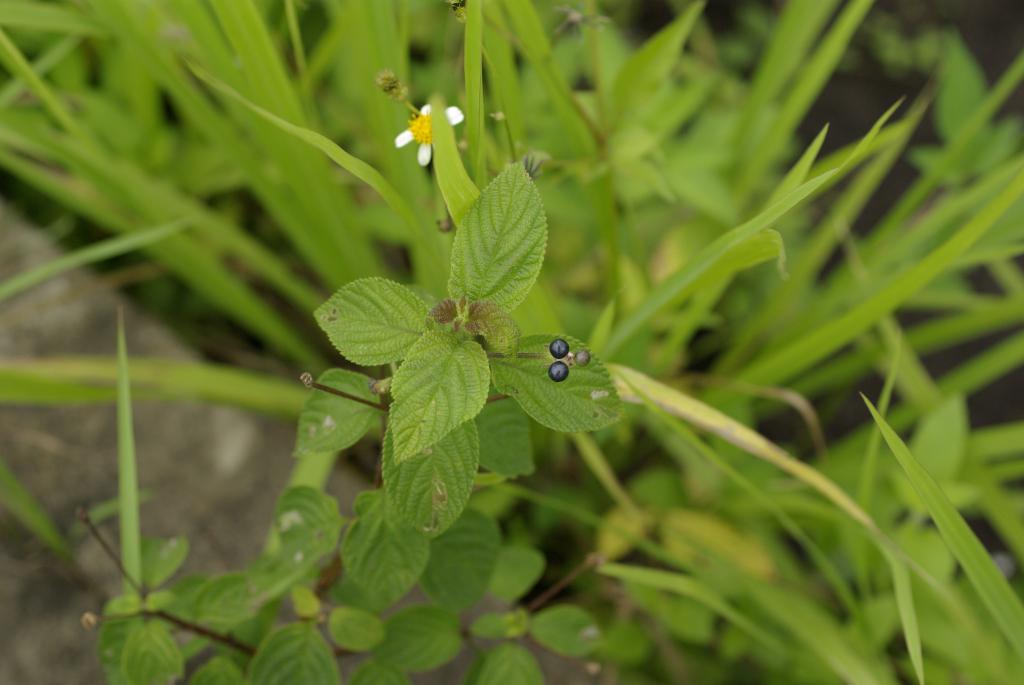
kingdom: Plantae
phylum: Tracheophyta
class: Magnoliopsida
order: Lamiales
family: Verbenaceae
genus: Lantana
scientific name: Lantana camara
